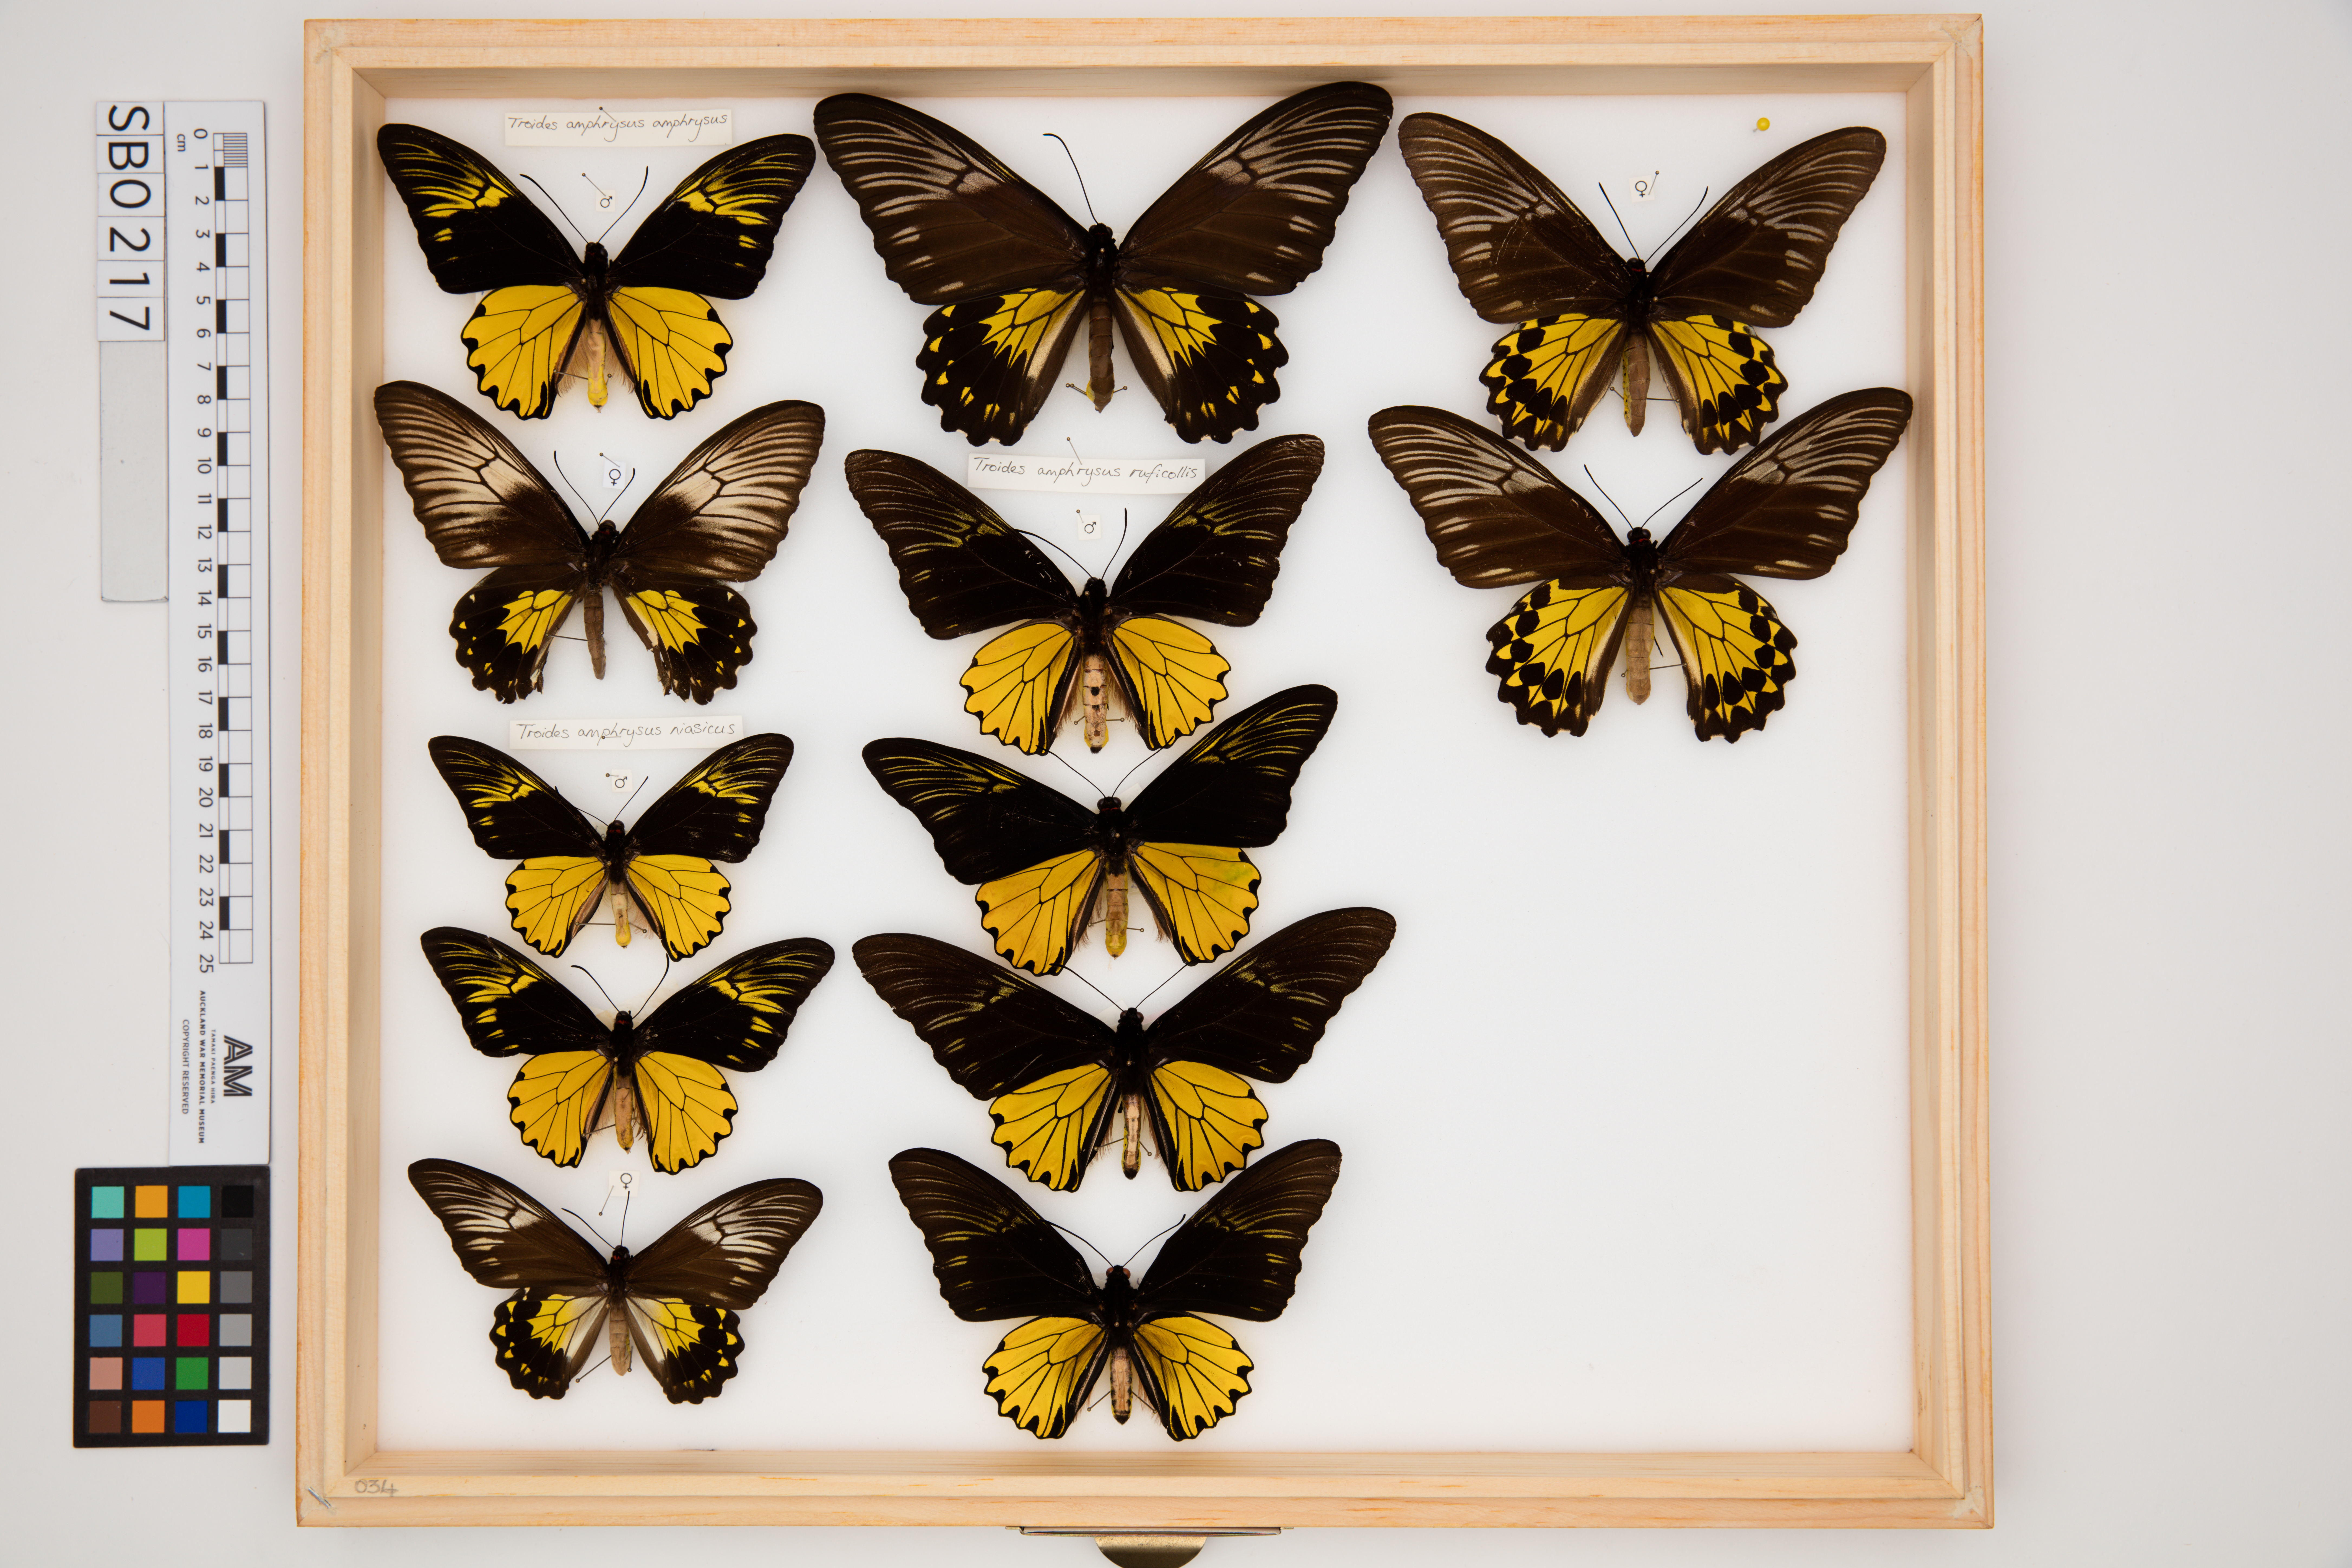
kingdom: Animalia
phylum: Arthropoda
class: Insecta
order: Lepidoptera
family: Papilionidae
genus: Troides
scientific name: Troides amphrysus
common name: Malay birdwing
